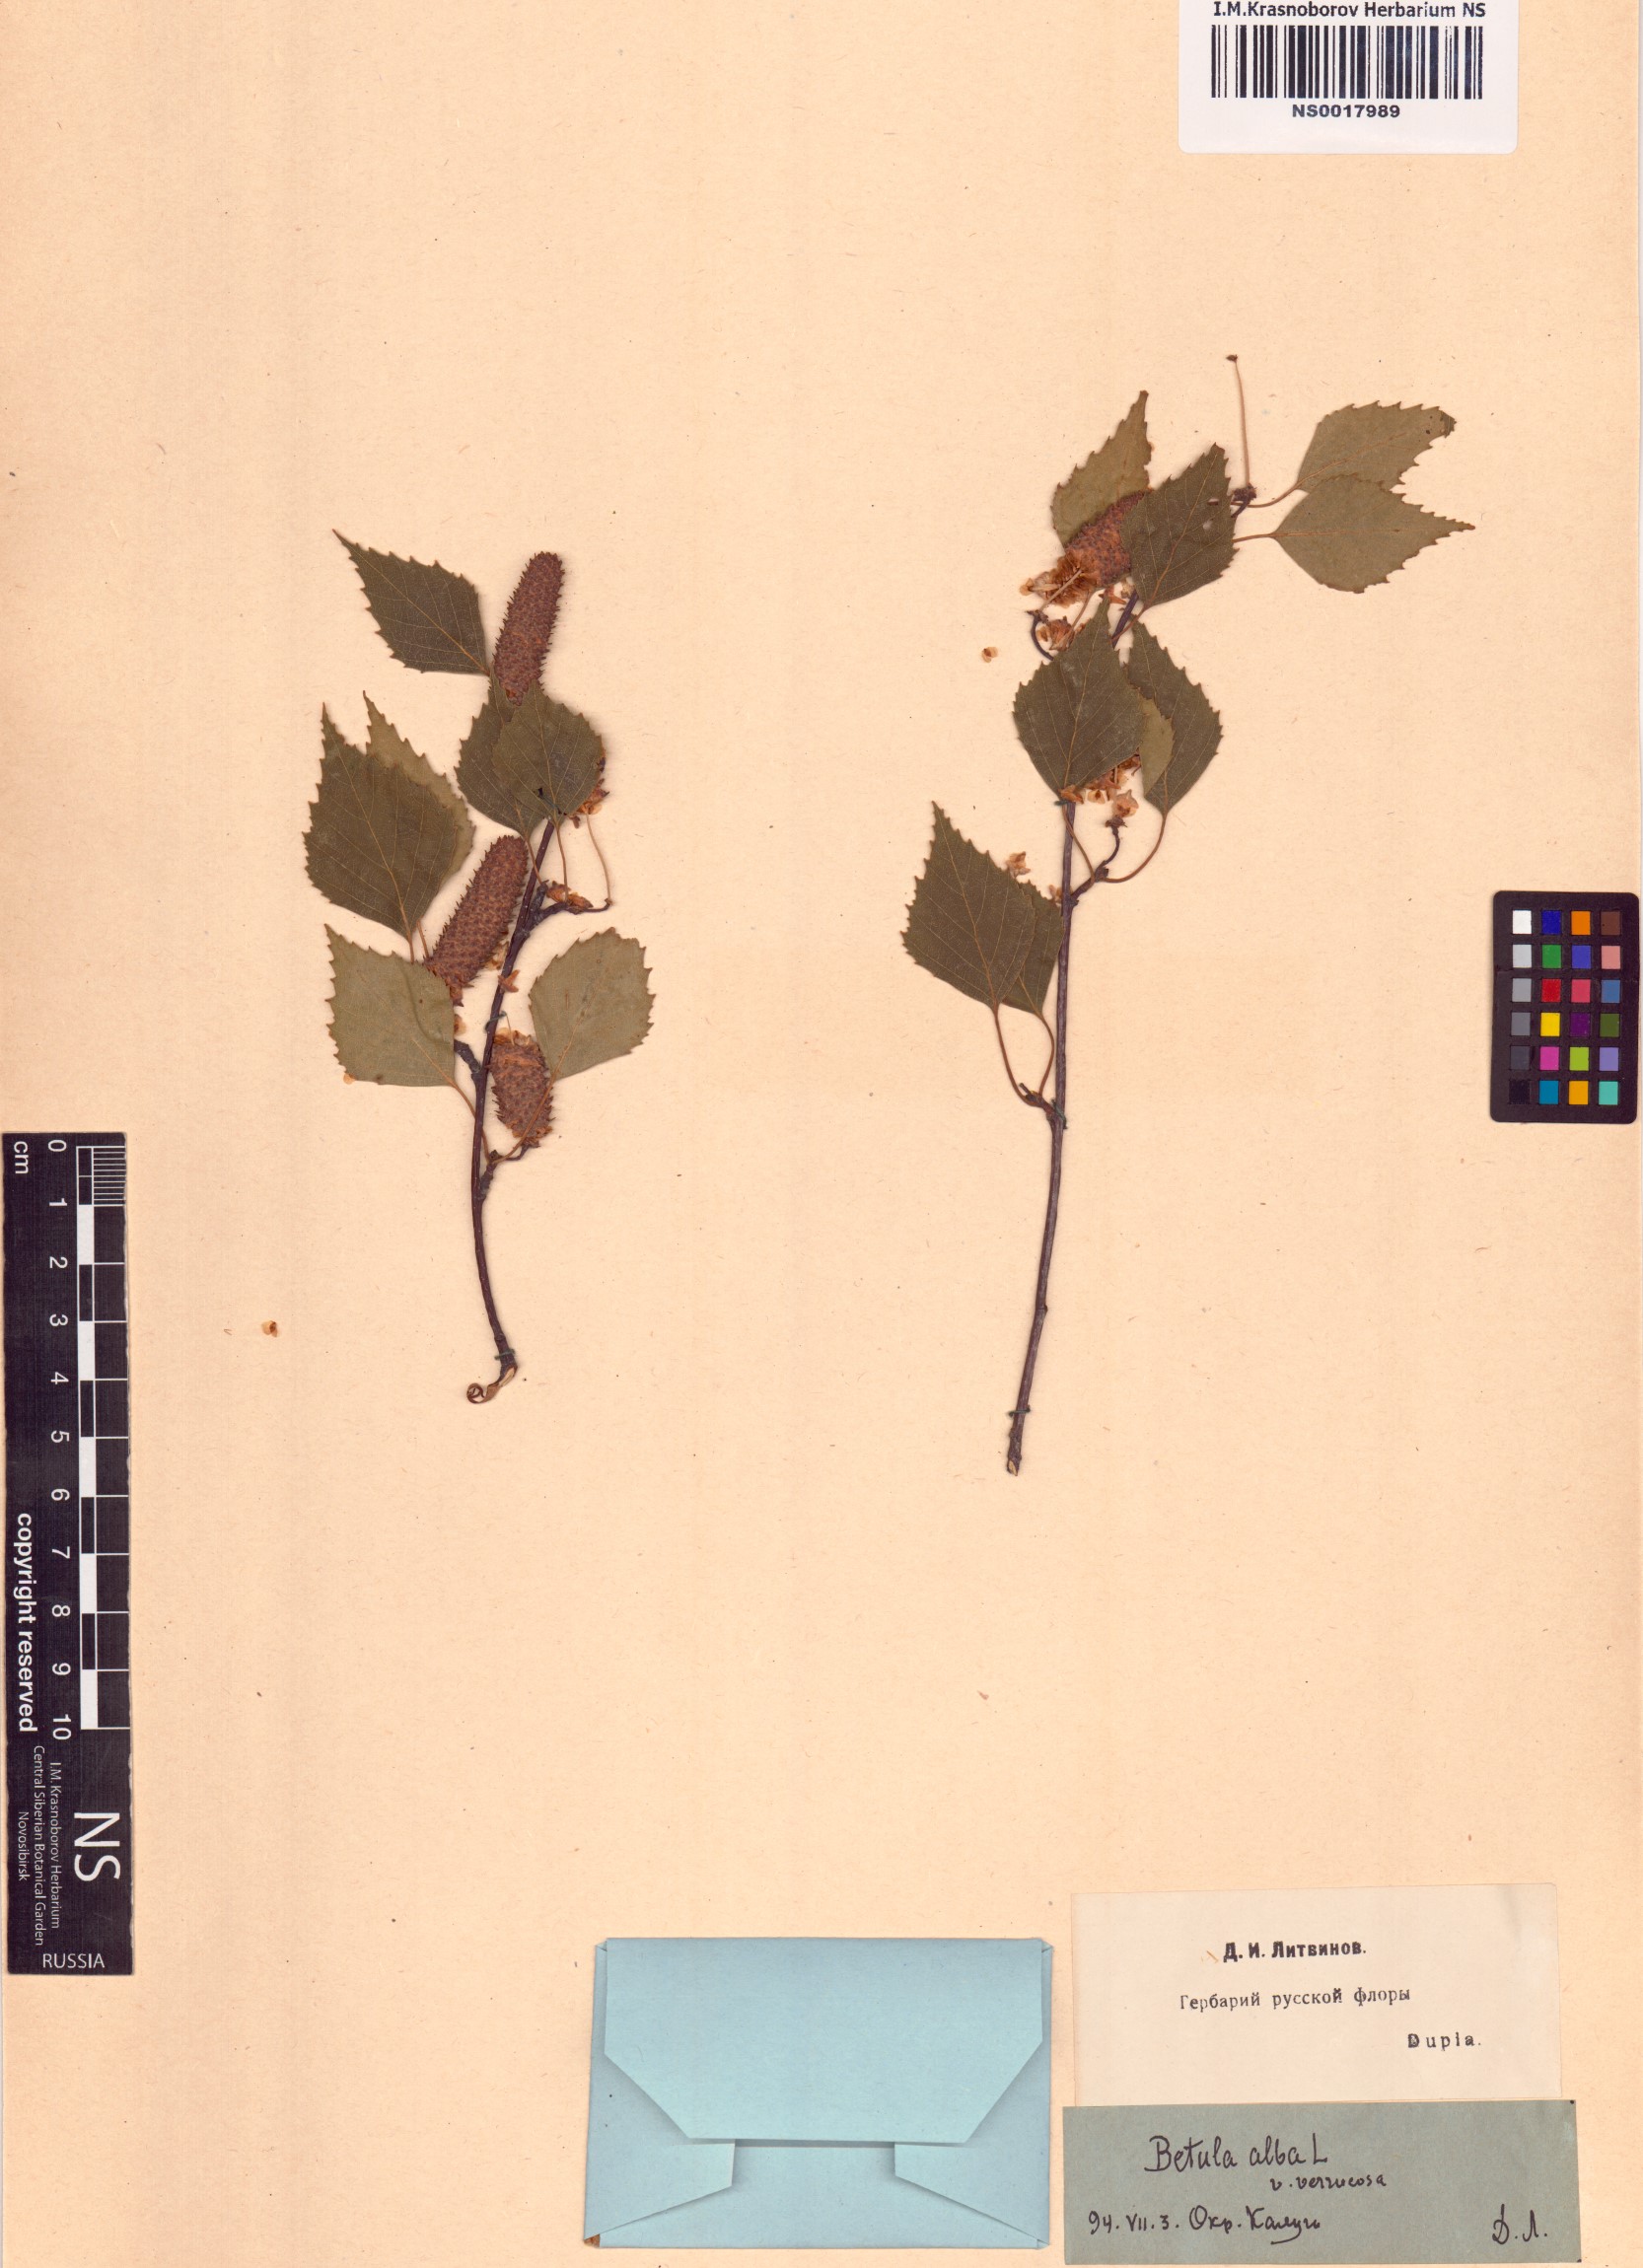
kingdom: Plantae
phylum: Tracheophyta
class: Magnoliopsida
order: Fagales
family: Betulaceae
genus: Betula
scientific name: Betula pendula
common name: Silver birch
